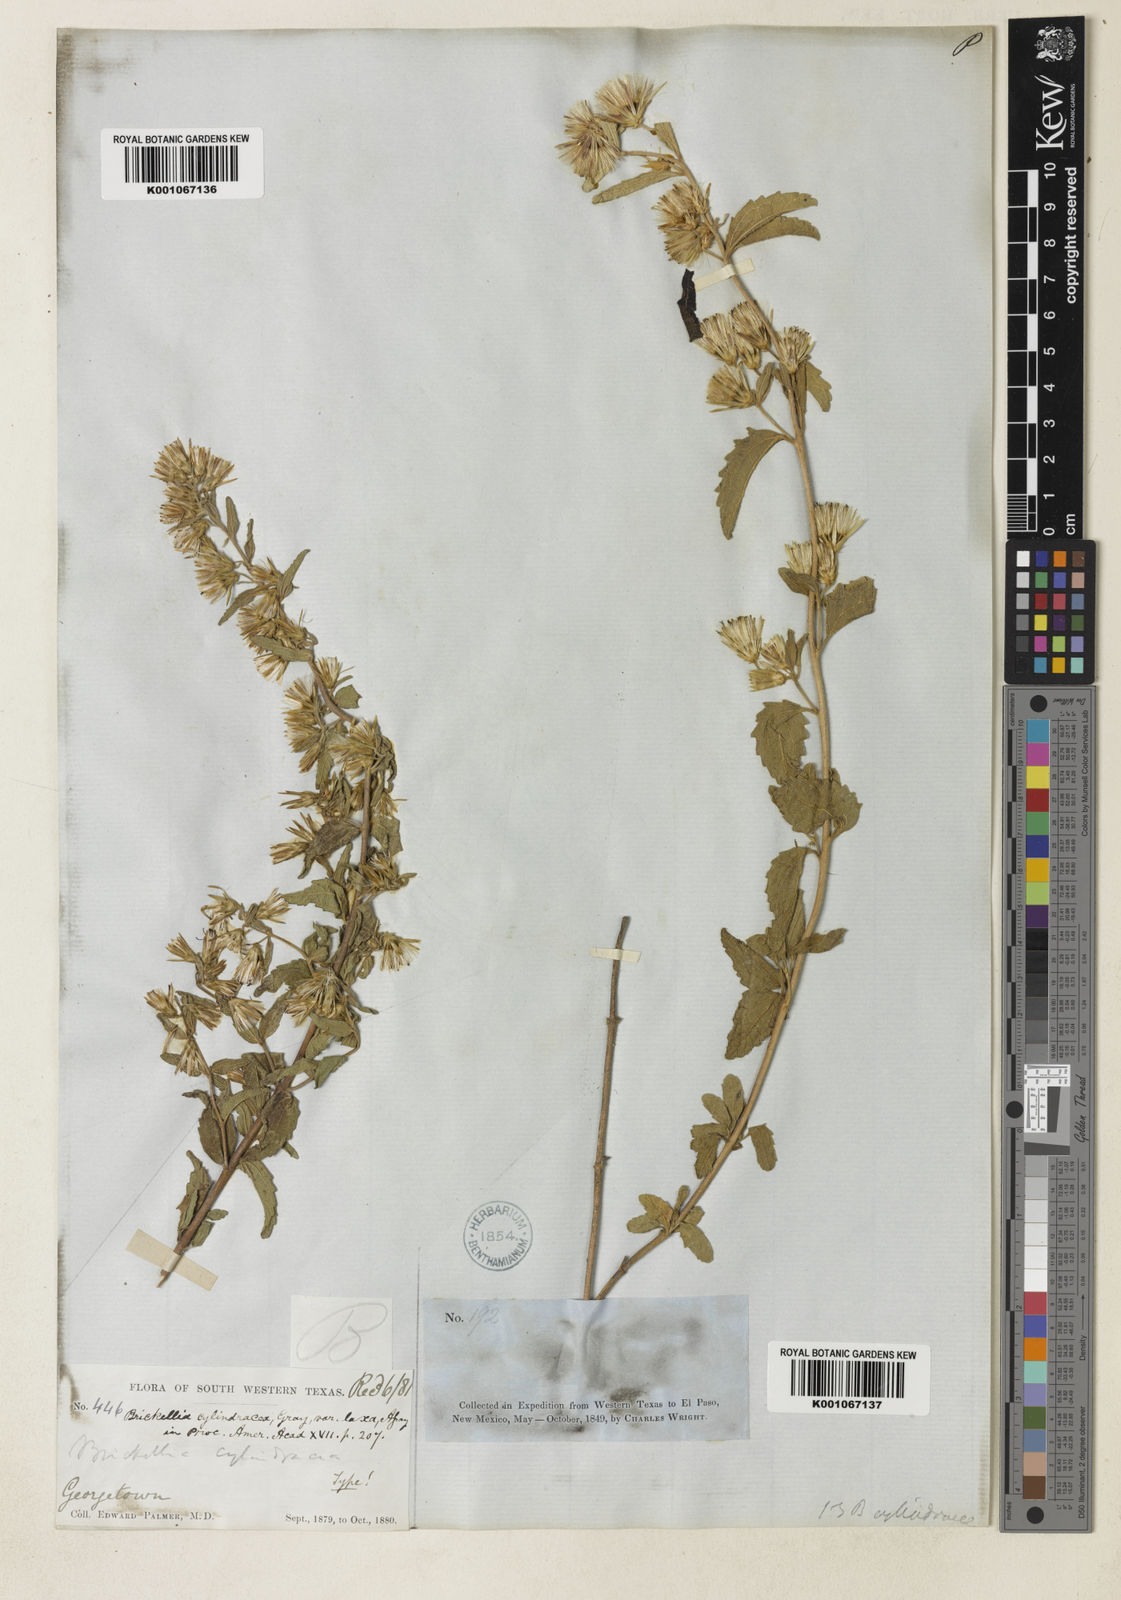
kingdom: Plantae
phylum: Tracheophyta
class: Magnoliopsida
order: Asterales
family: Asteraceae
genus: Brickellia
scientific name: Brickellia cylindracea
